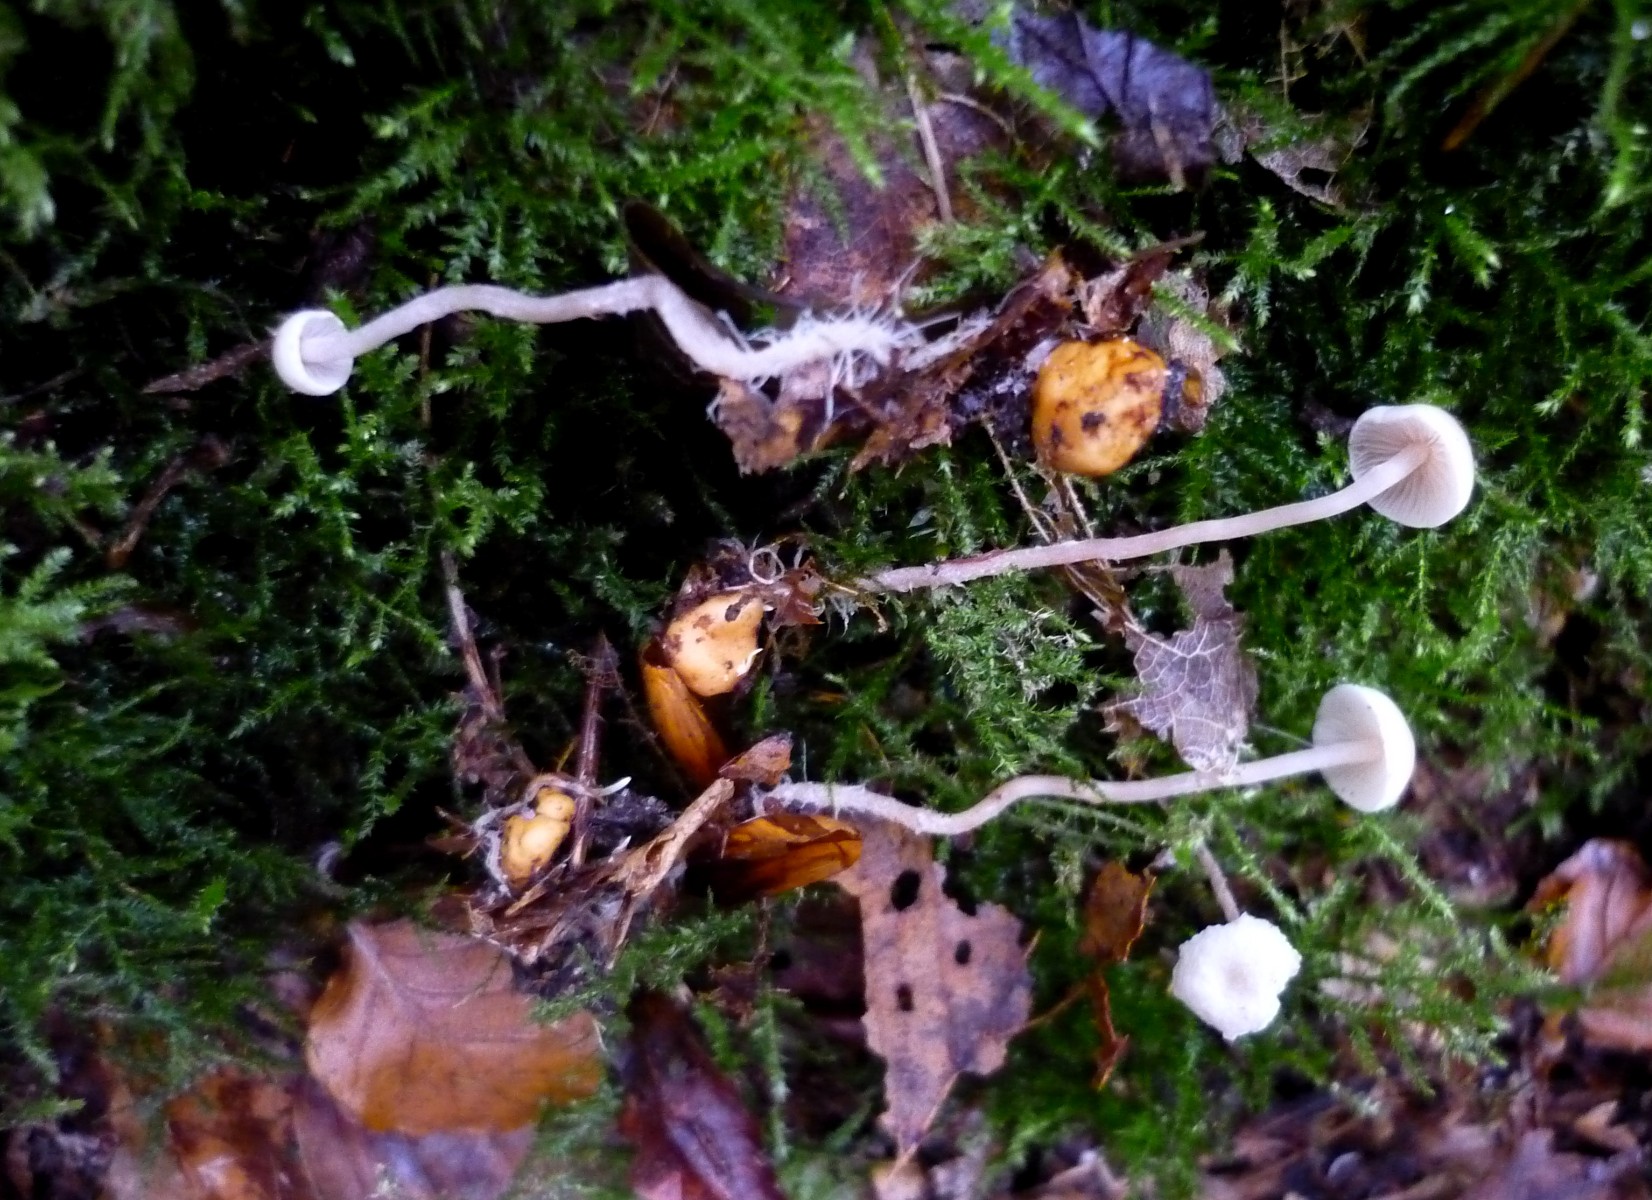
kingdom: Fungi
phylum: Basidiomycota
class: Agaricomycetes
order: Agaricales
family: Tricholomataceae
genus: Collybia
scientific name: Collybia cookei
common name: gulknoldet lighat
